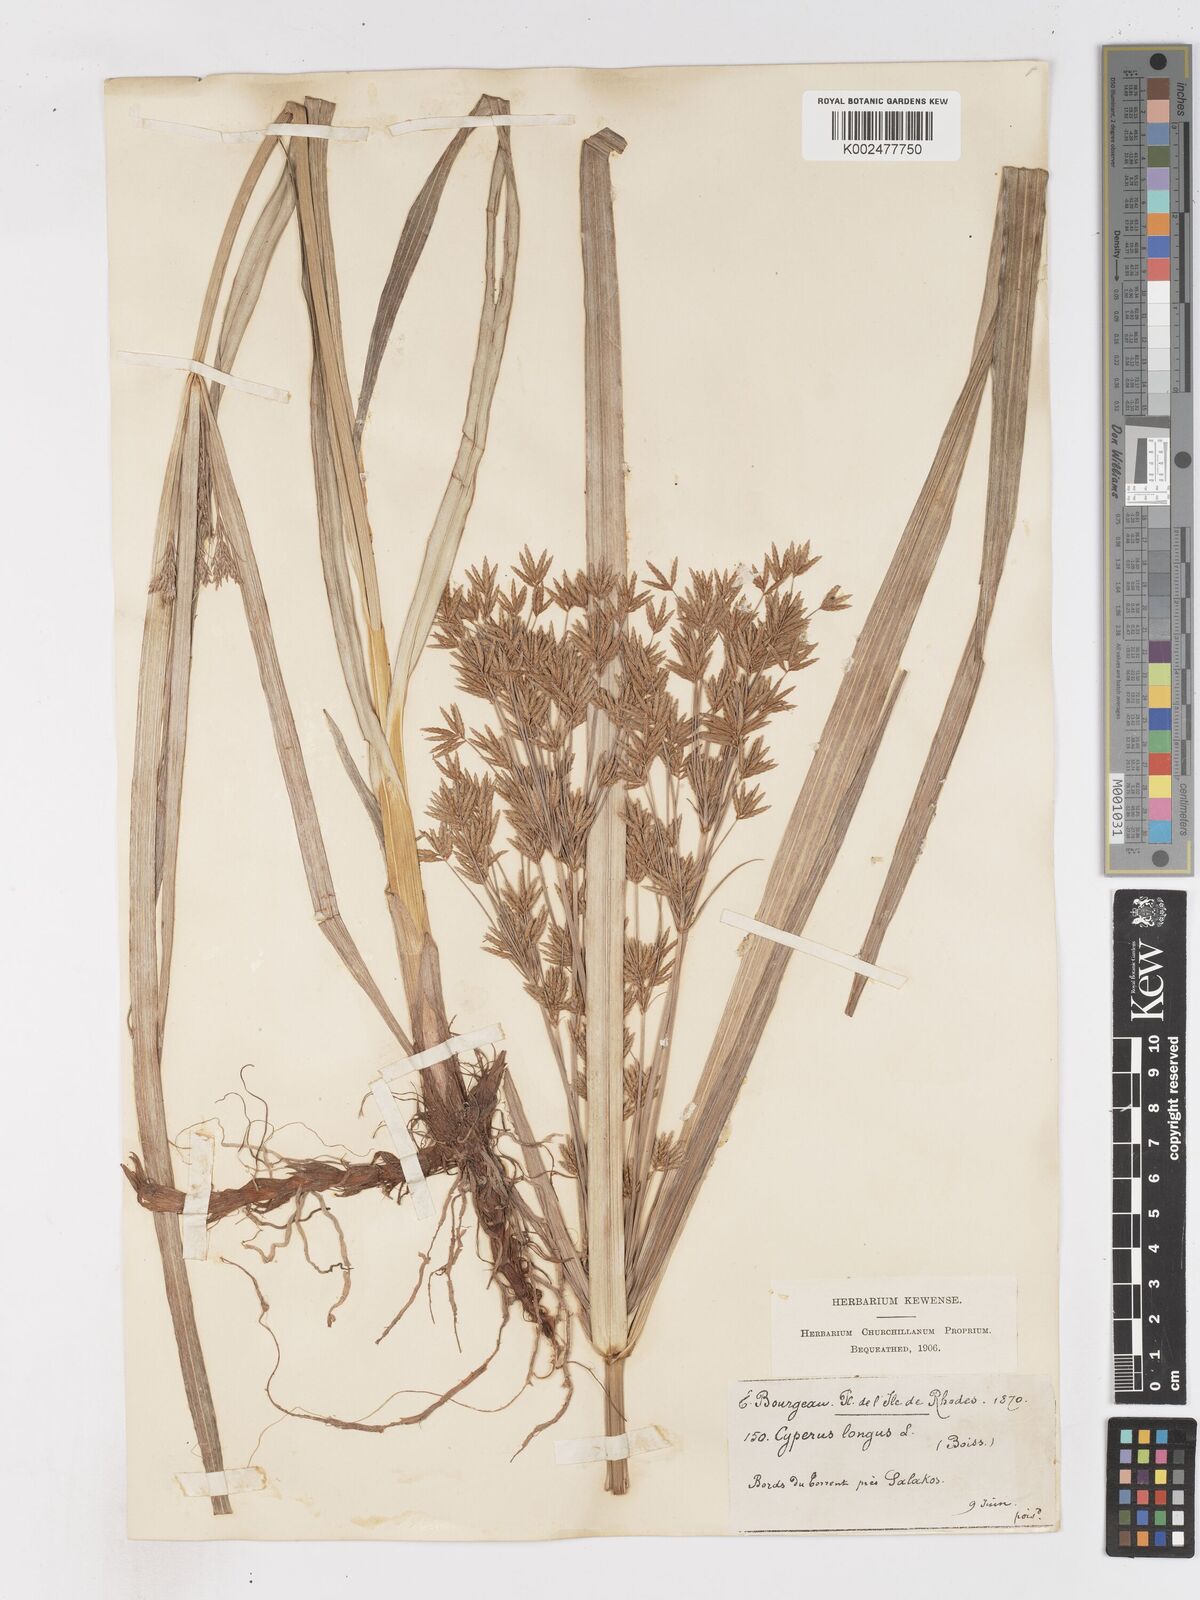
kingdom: Plantae
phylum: Tracheophyta
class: Liliopsida
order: Poales
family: Cyperaceae
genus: Cyperus
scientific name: Cyperus longus
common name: Galingale
